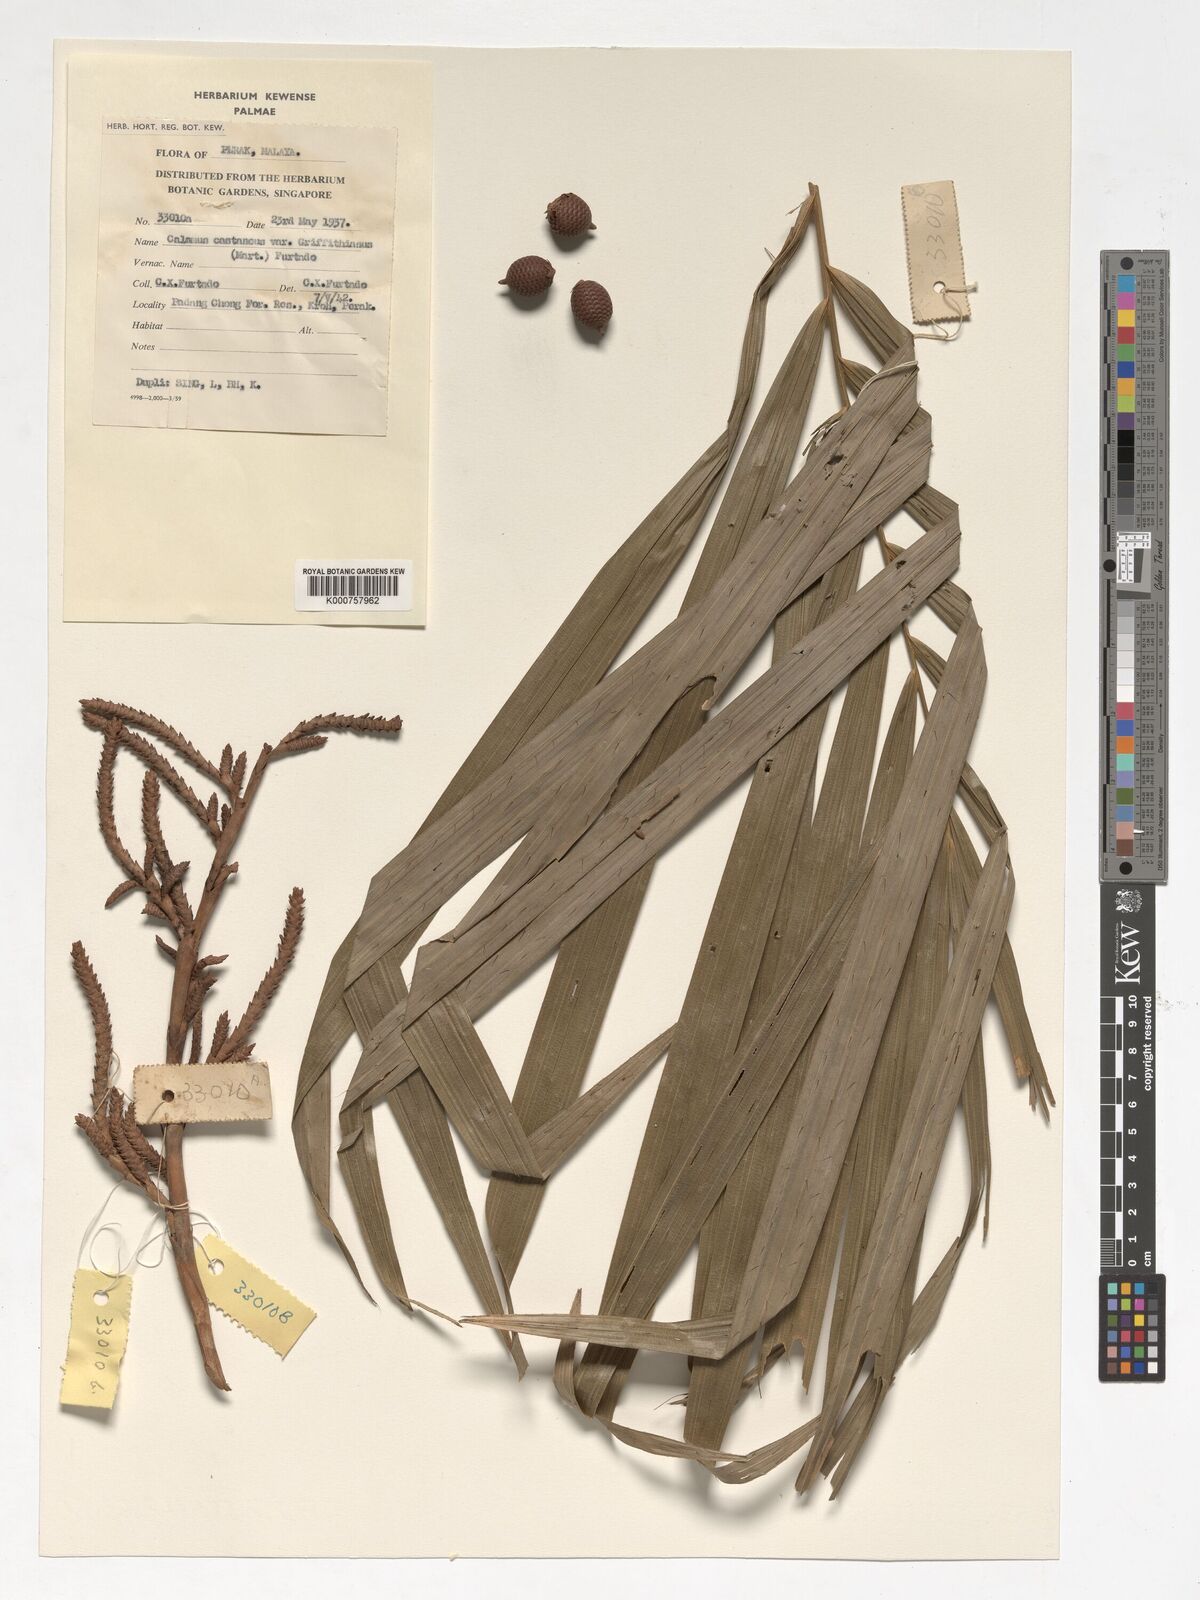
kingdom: Plantae
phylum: Tracheophyta
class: Liliopsida
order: Arecales
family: Arecaceae
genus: Calamus
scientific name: Calamus castaneus
